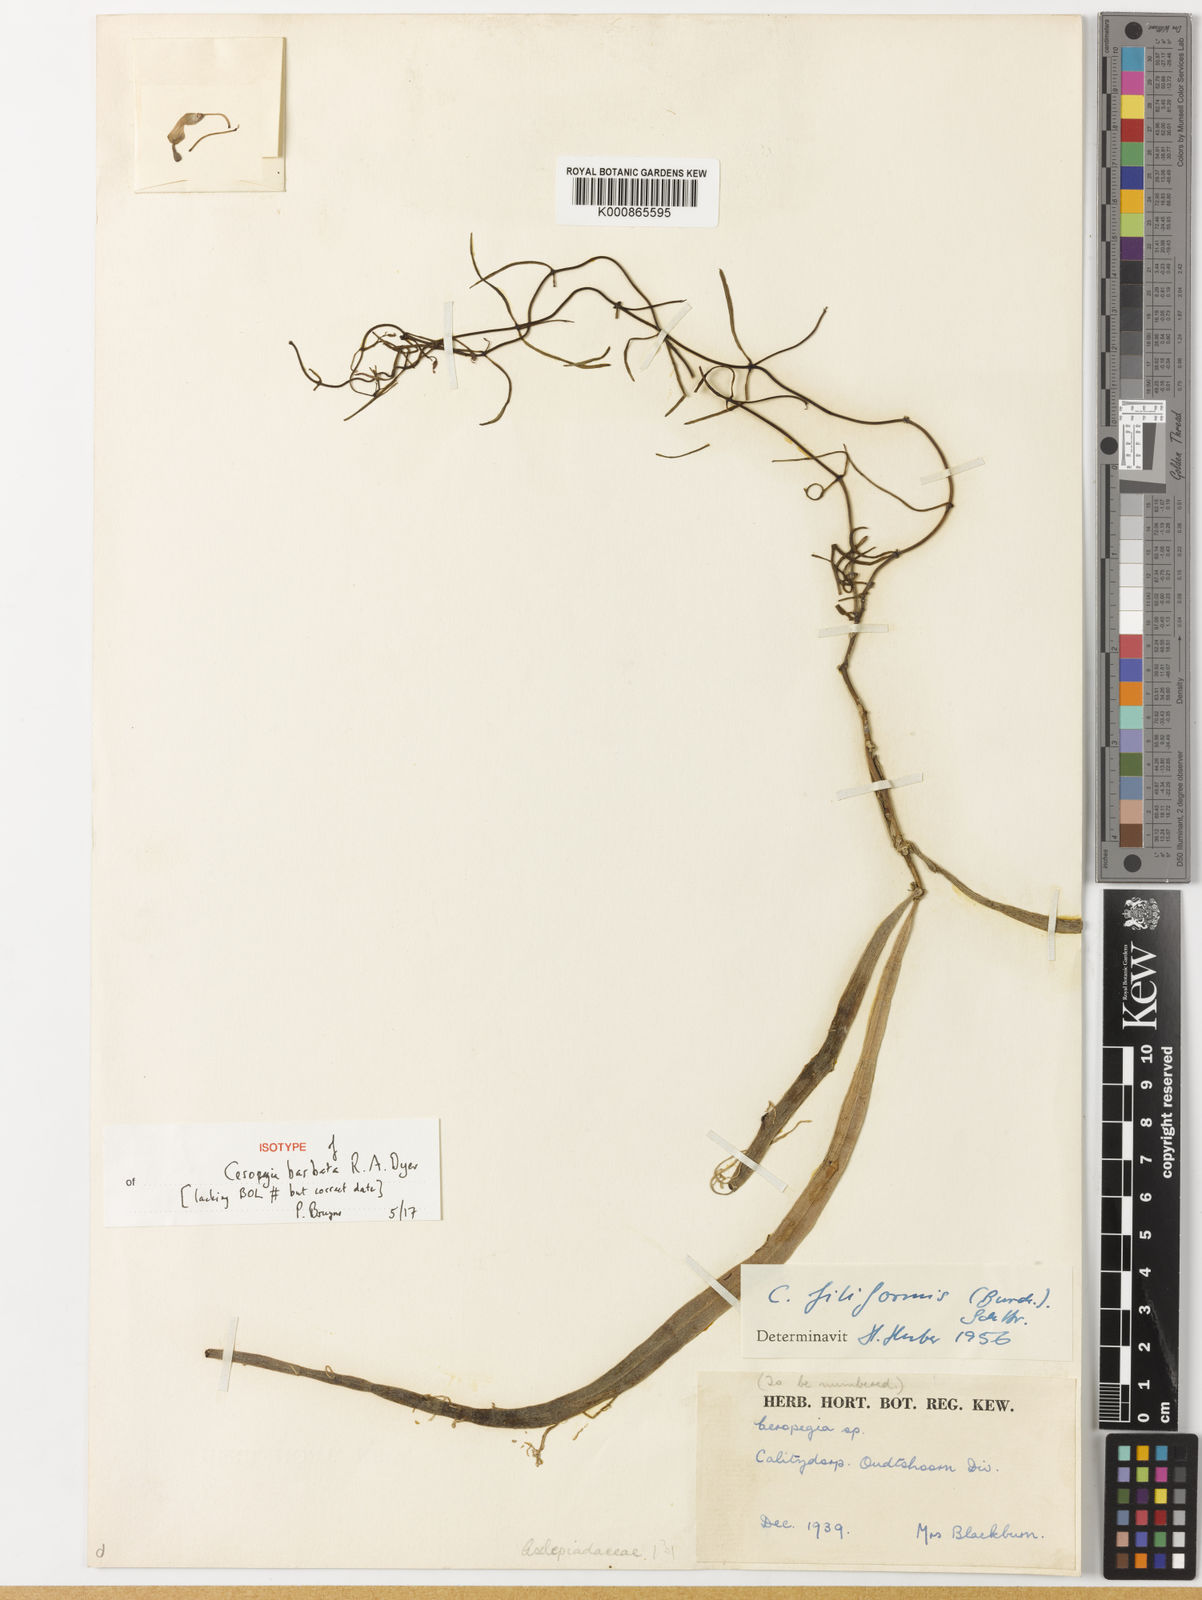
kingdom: Plantae
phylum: Tracheophyta
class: Magnoliopsida
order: Gentianales
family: Apocynaceae
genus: Ceropegia
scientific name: Ceropegia barbata
